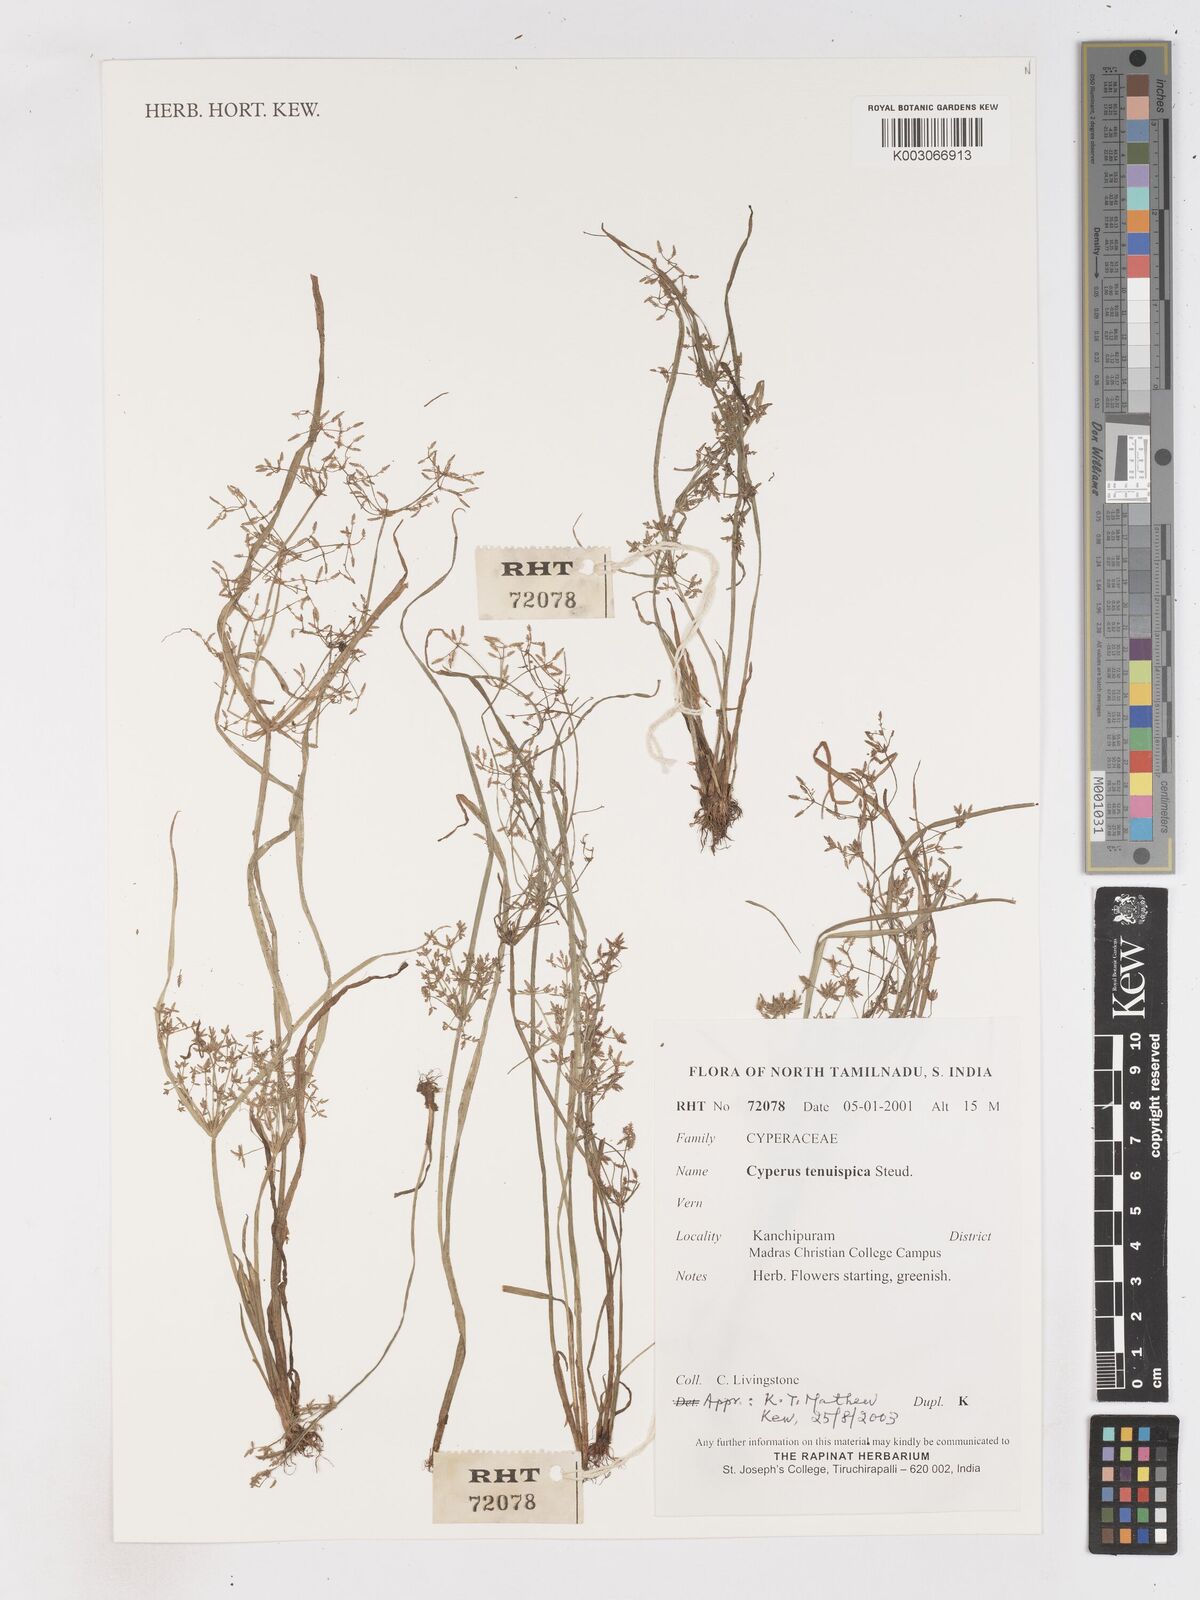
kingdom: Plantae
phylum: Tracheophyta
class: Liliopsida
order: Poales
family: Cyperaceae
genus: Cyperus
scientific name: Cyperus tenuispica
